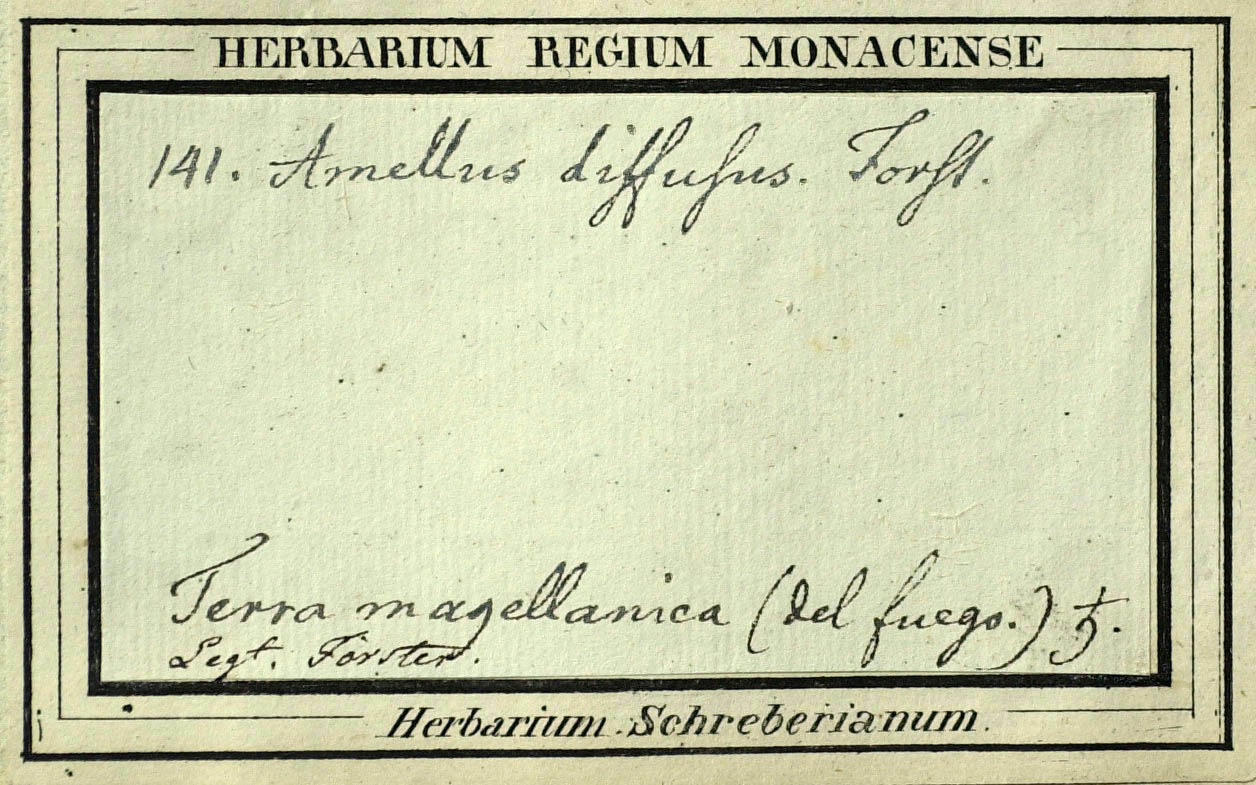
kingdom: Plantae
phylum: Tracheophyta
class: Magnoliopsida
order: Asterales
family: Asteraceae
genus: Chiliotrichum
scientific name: Chiliotrichum diffusum
